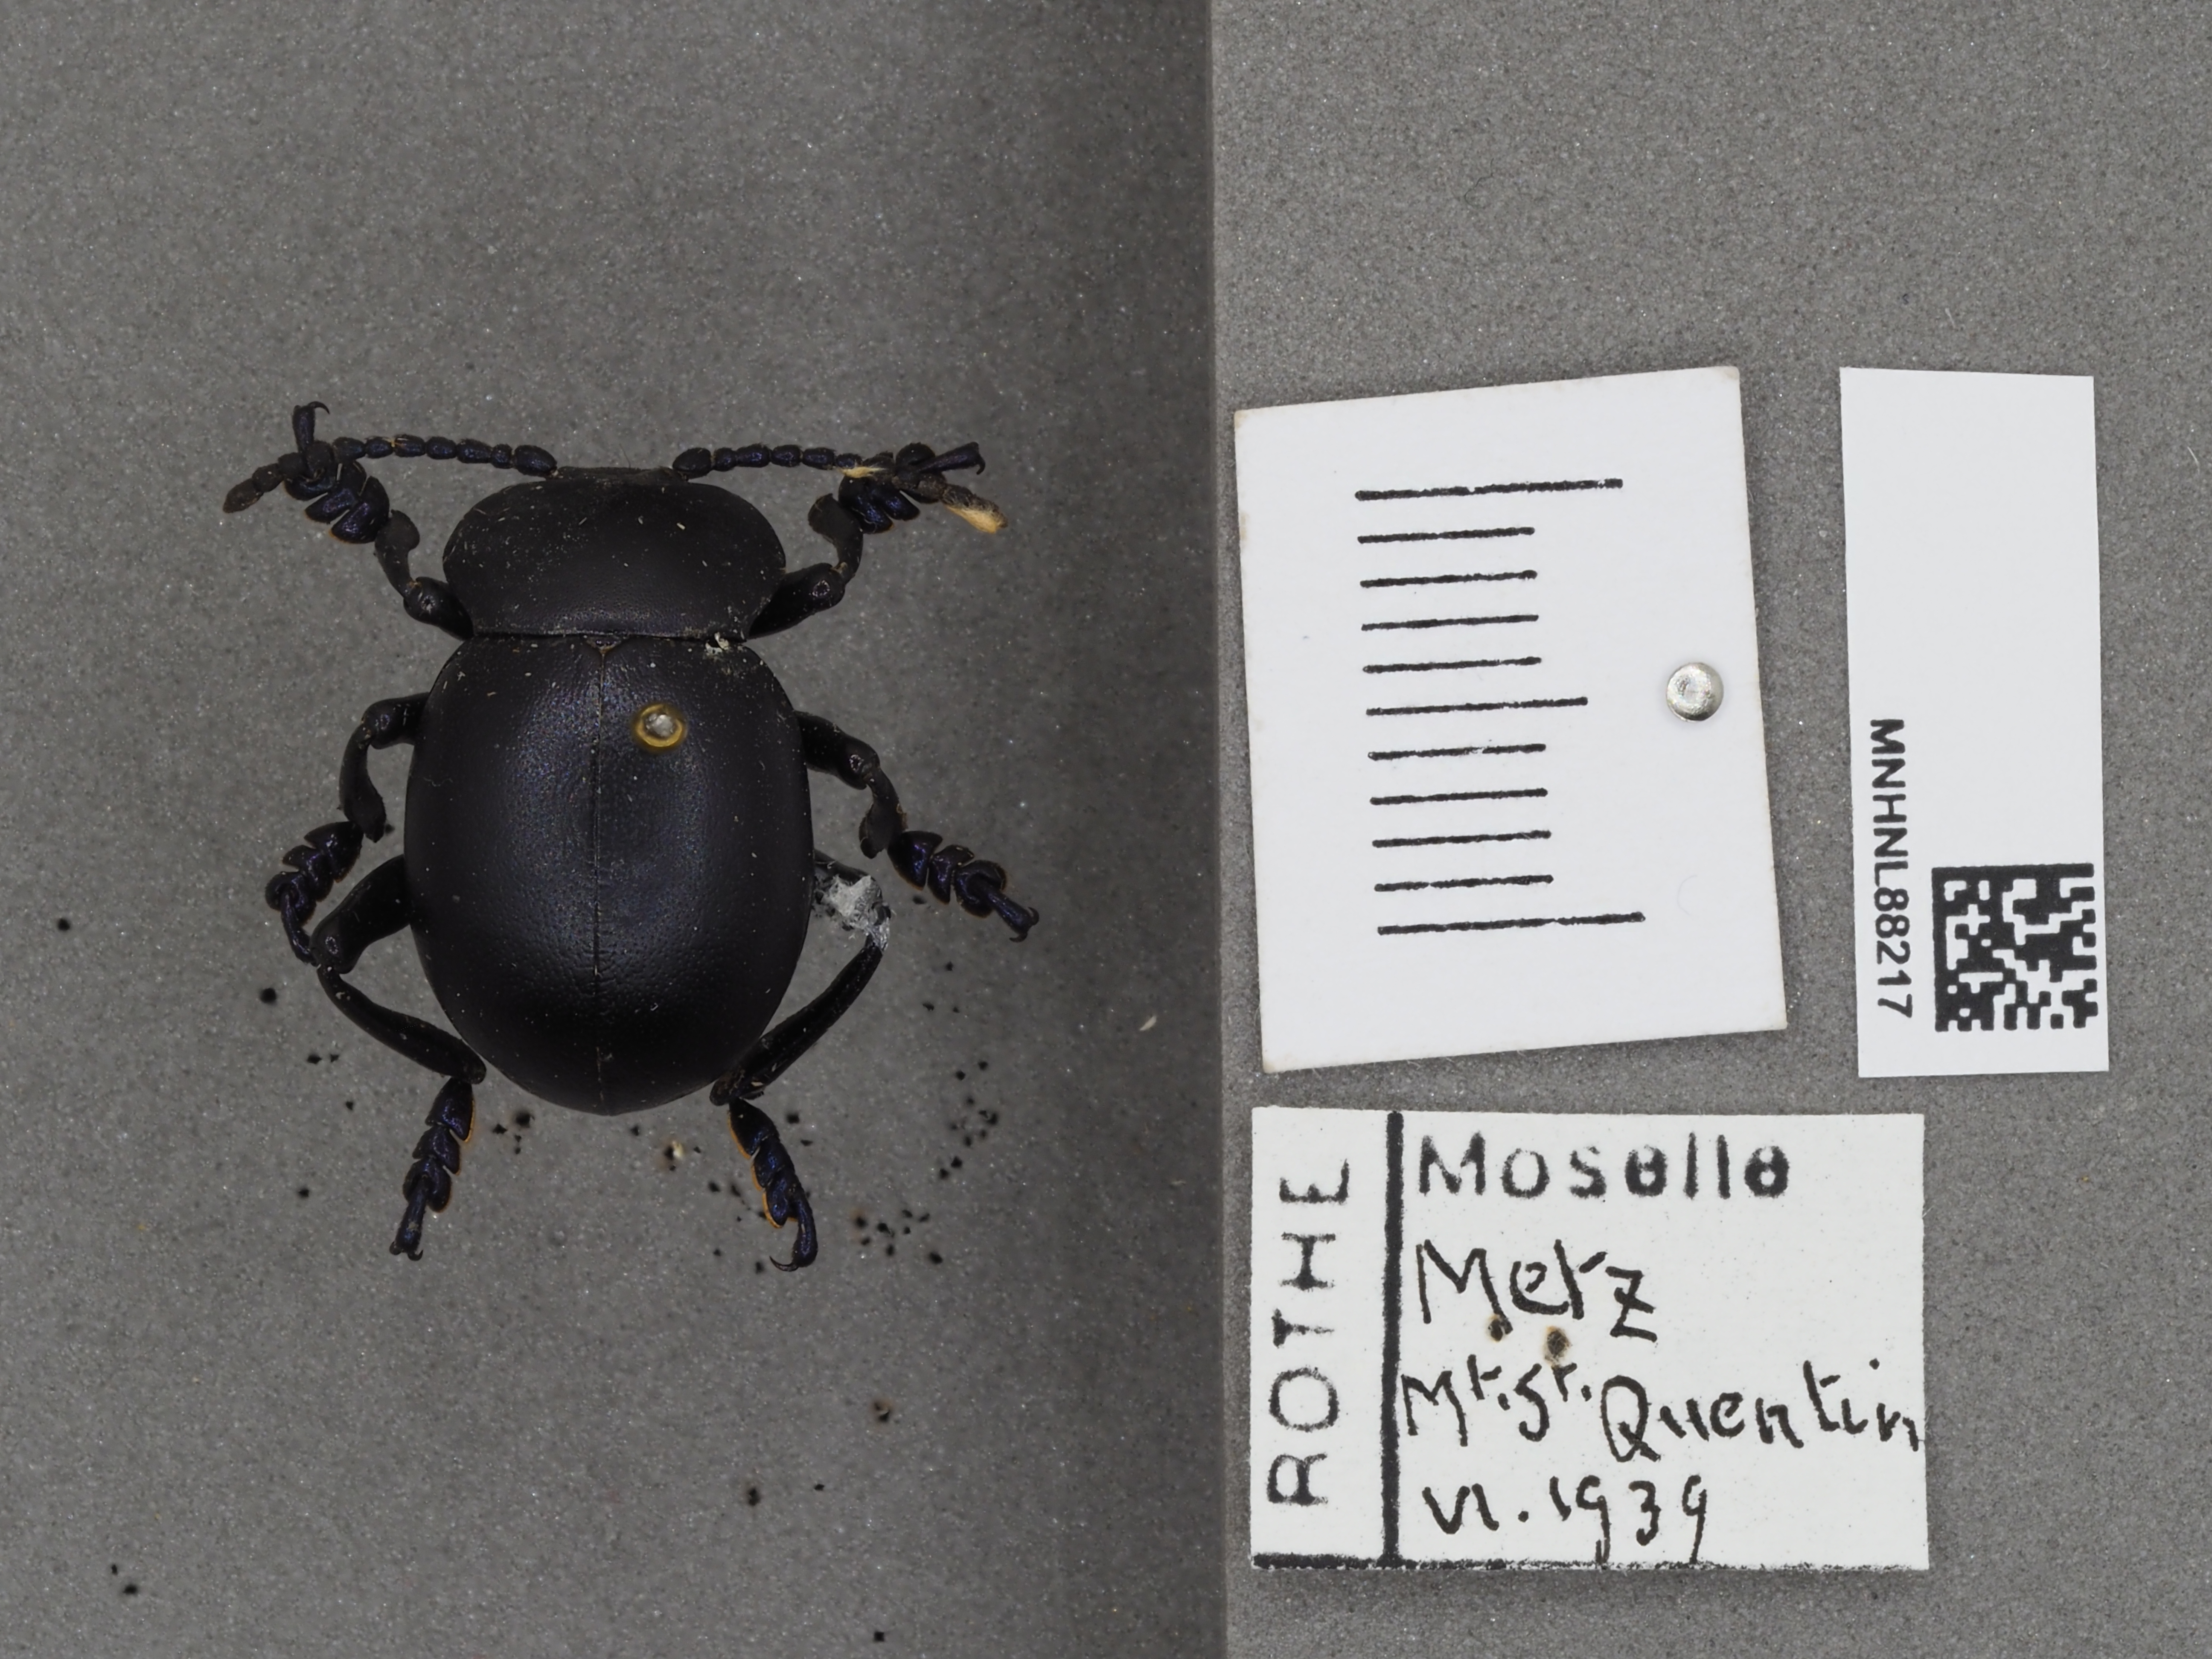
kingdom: Animalia
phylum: Arthropoda
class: Insecta
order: Coleoptera
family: Chrysomelidae
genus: Timarcha
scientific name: Timarcha tenebricosa
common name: Bloody-nosed beetle
